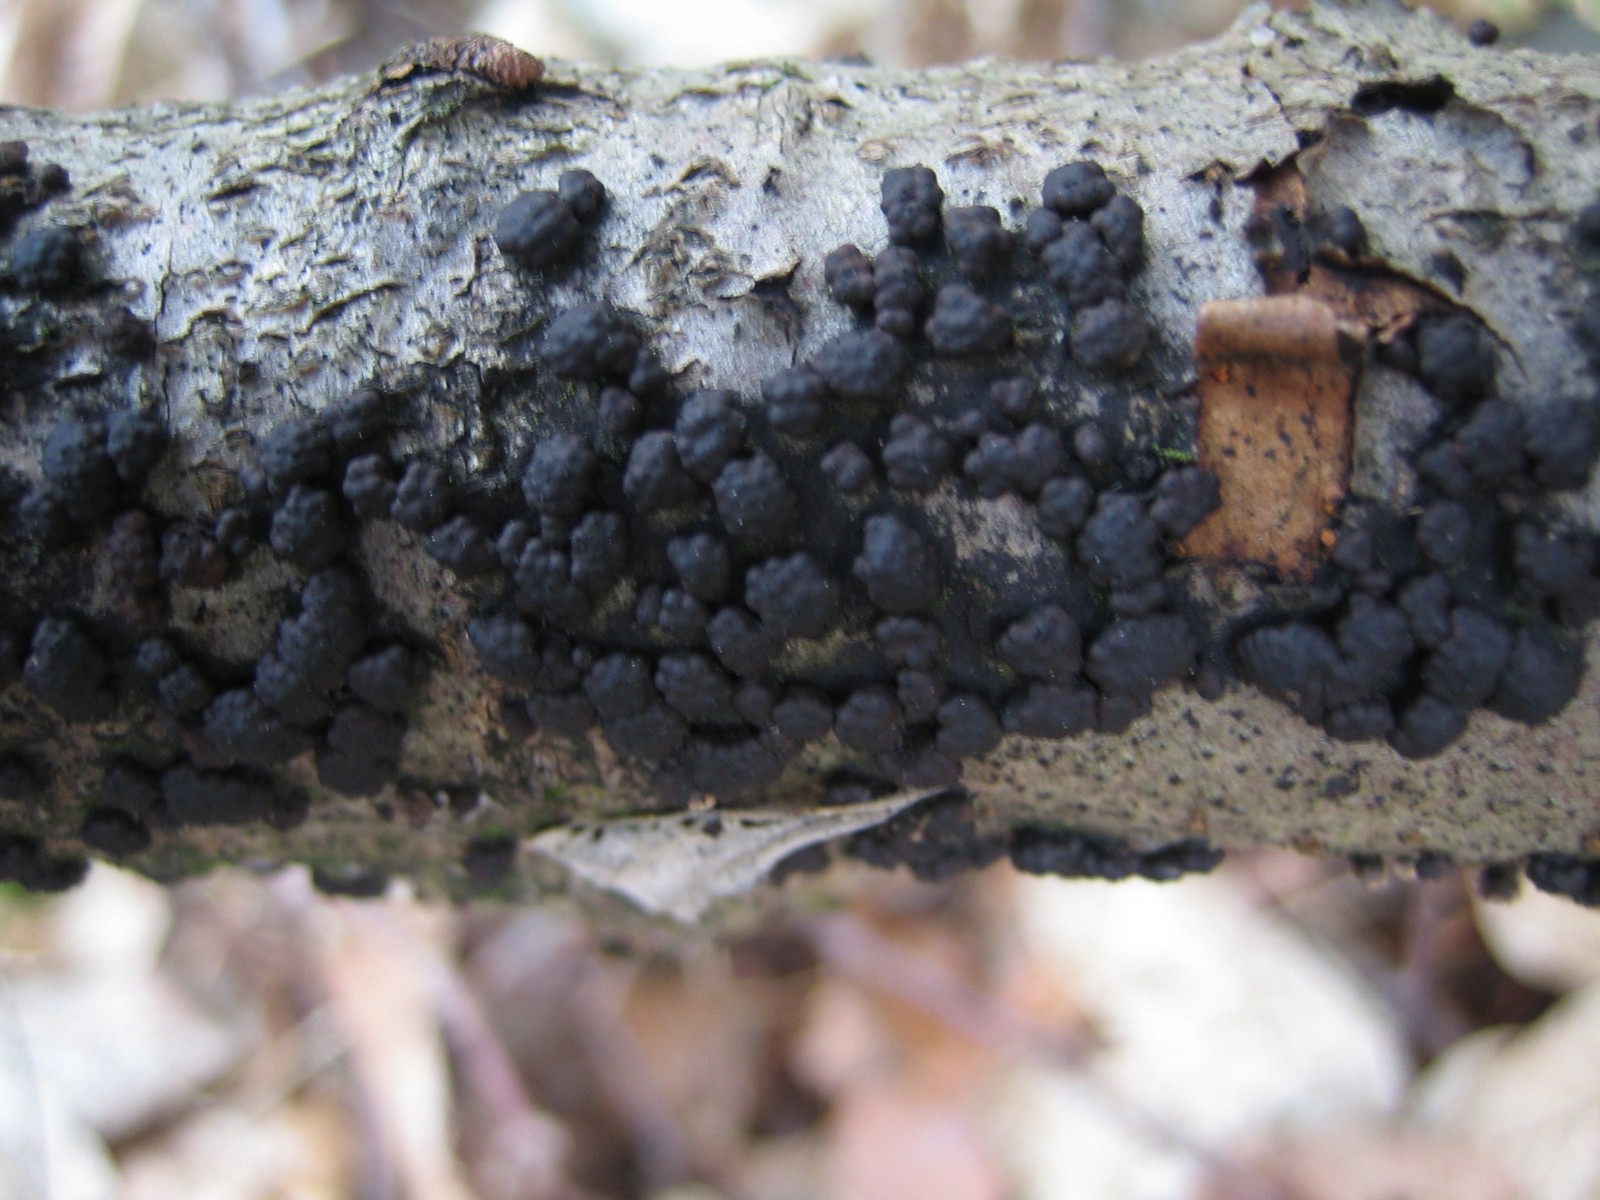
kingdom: Fungi
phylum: Ascomycota
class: Sordariomycetes
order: Xylariales
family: Hypoxylaceae
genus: Jackrogersella
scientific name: Jackrogersella
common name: kulbær
